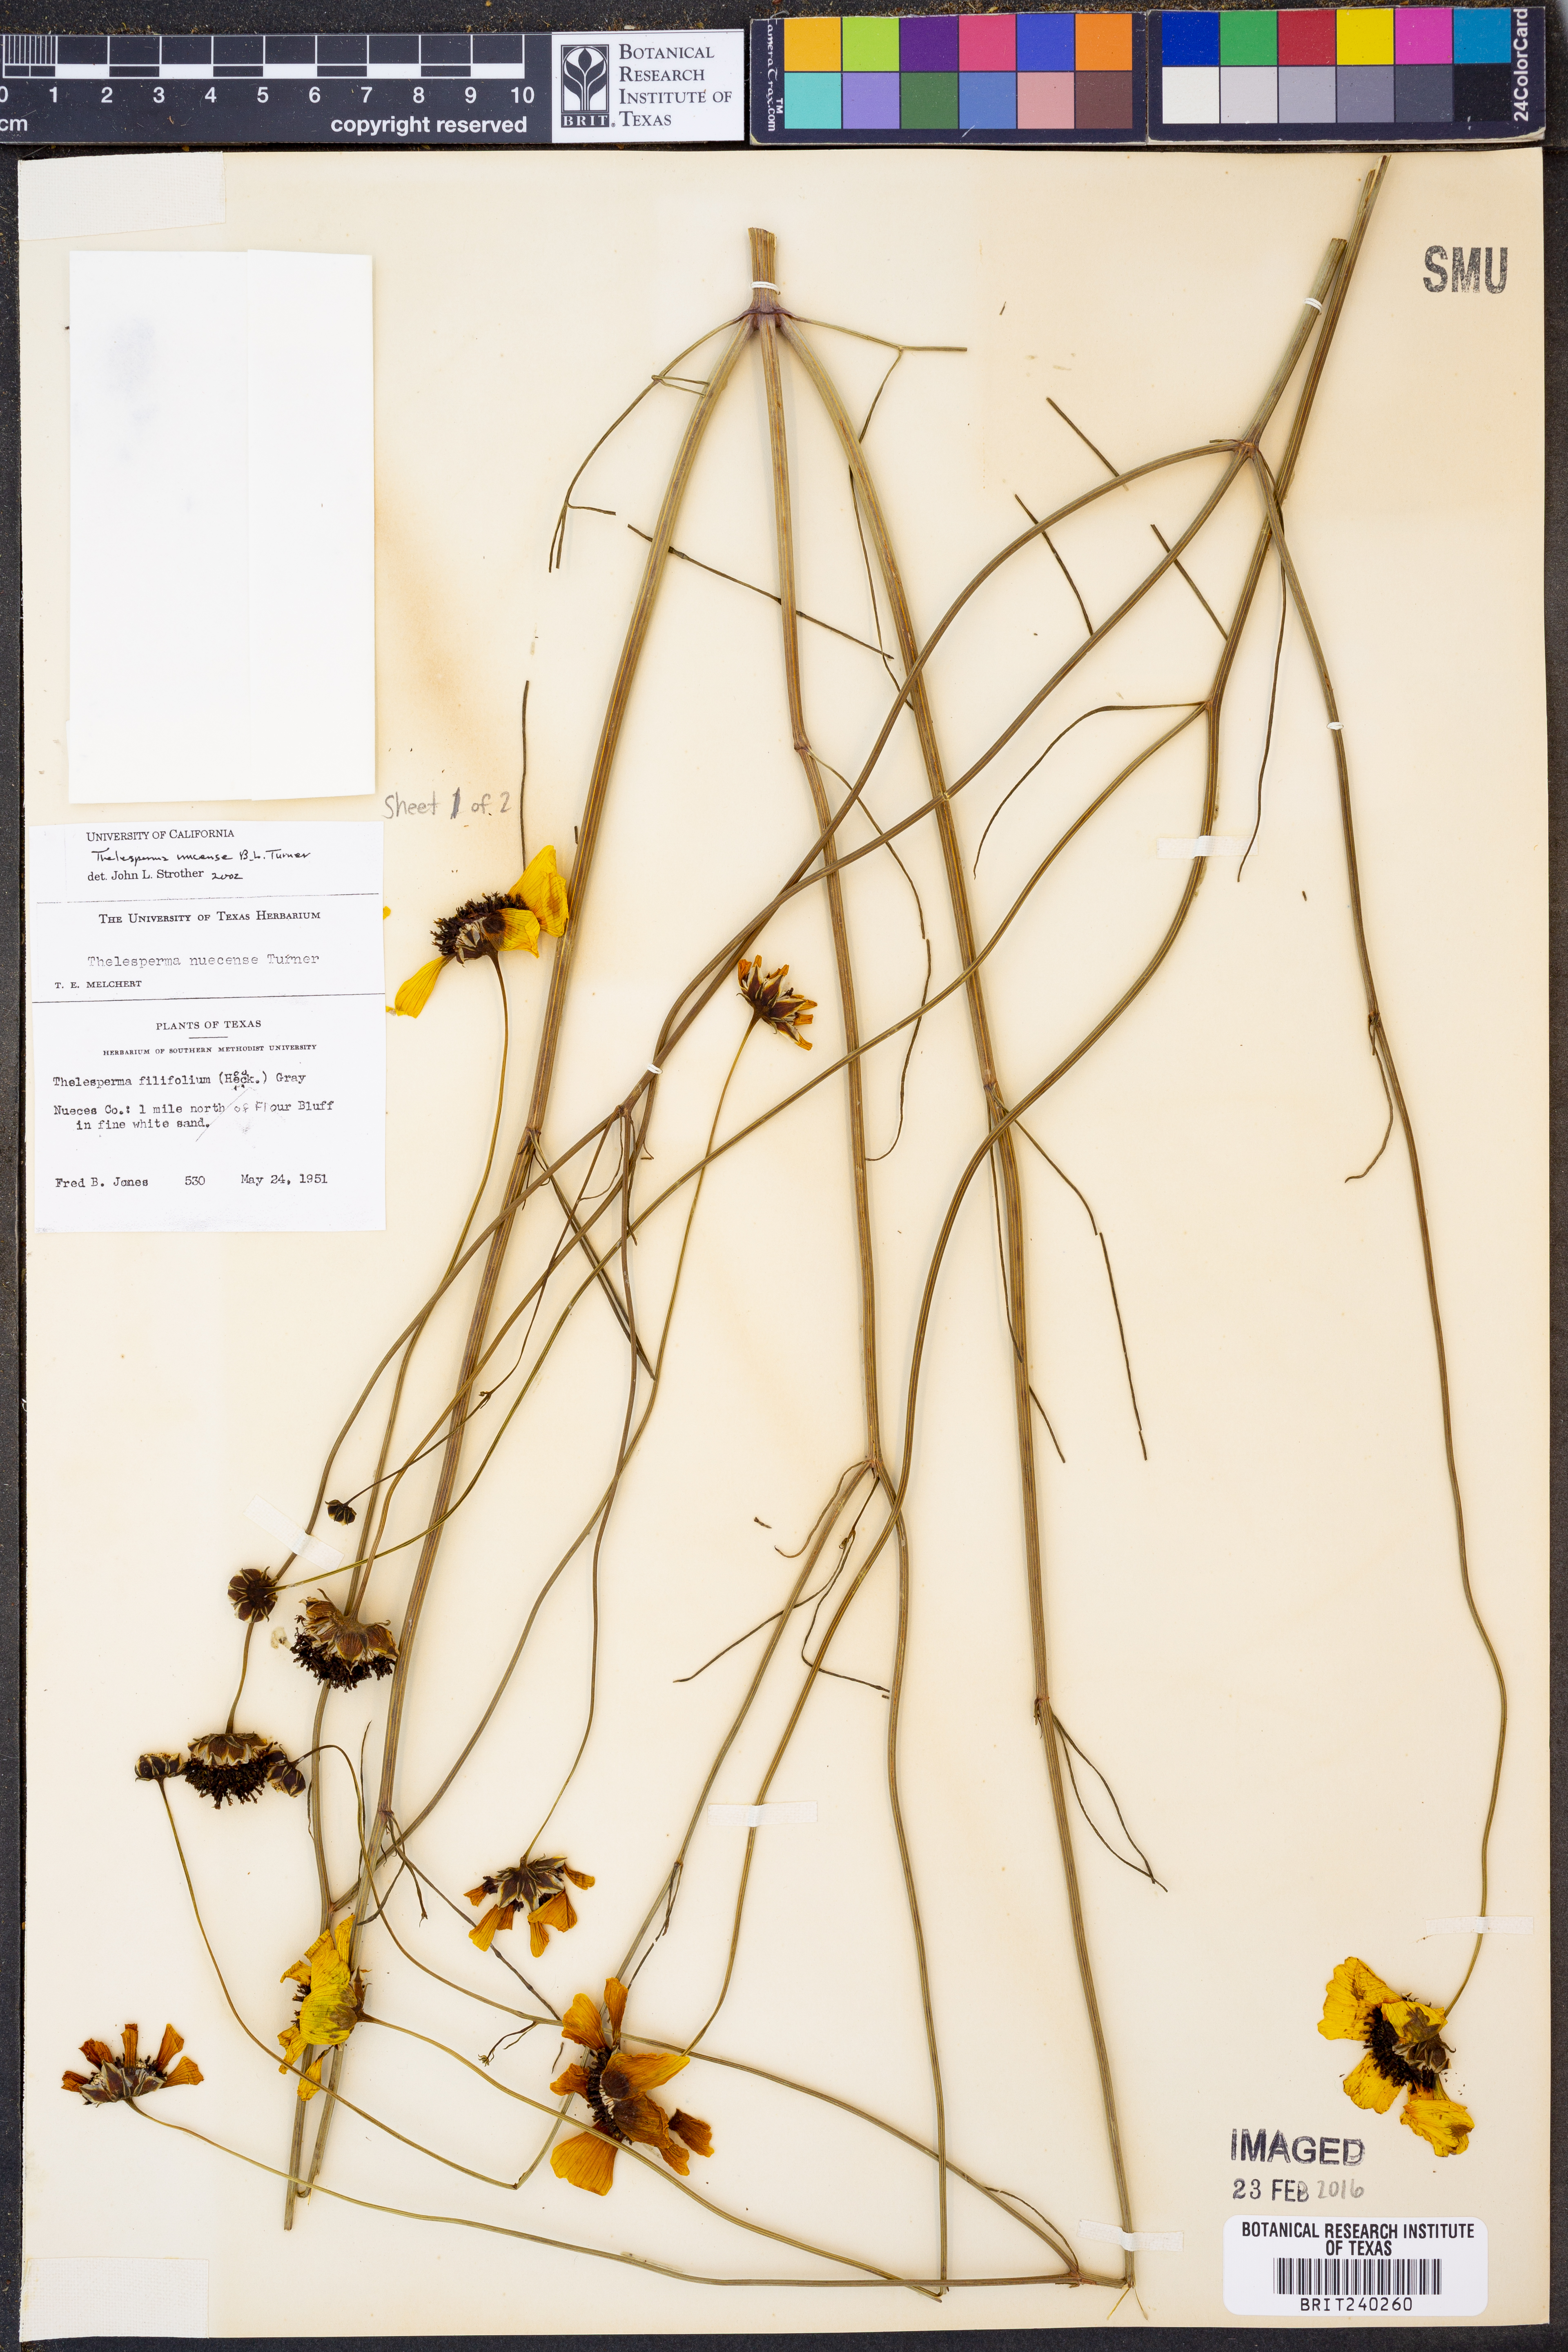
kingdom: Plantae
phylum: Tracheophyta
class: Magnoliopsida
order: Asterales
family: Asteraceae
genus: Thelesperma
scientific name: Thelesperma nuecense
